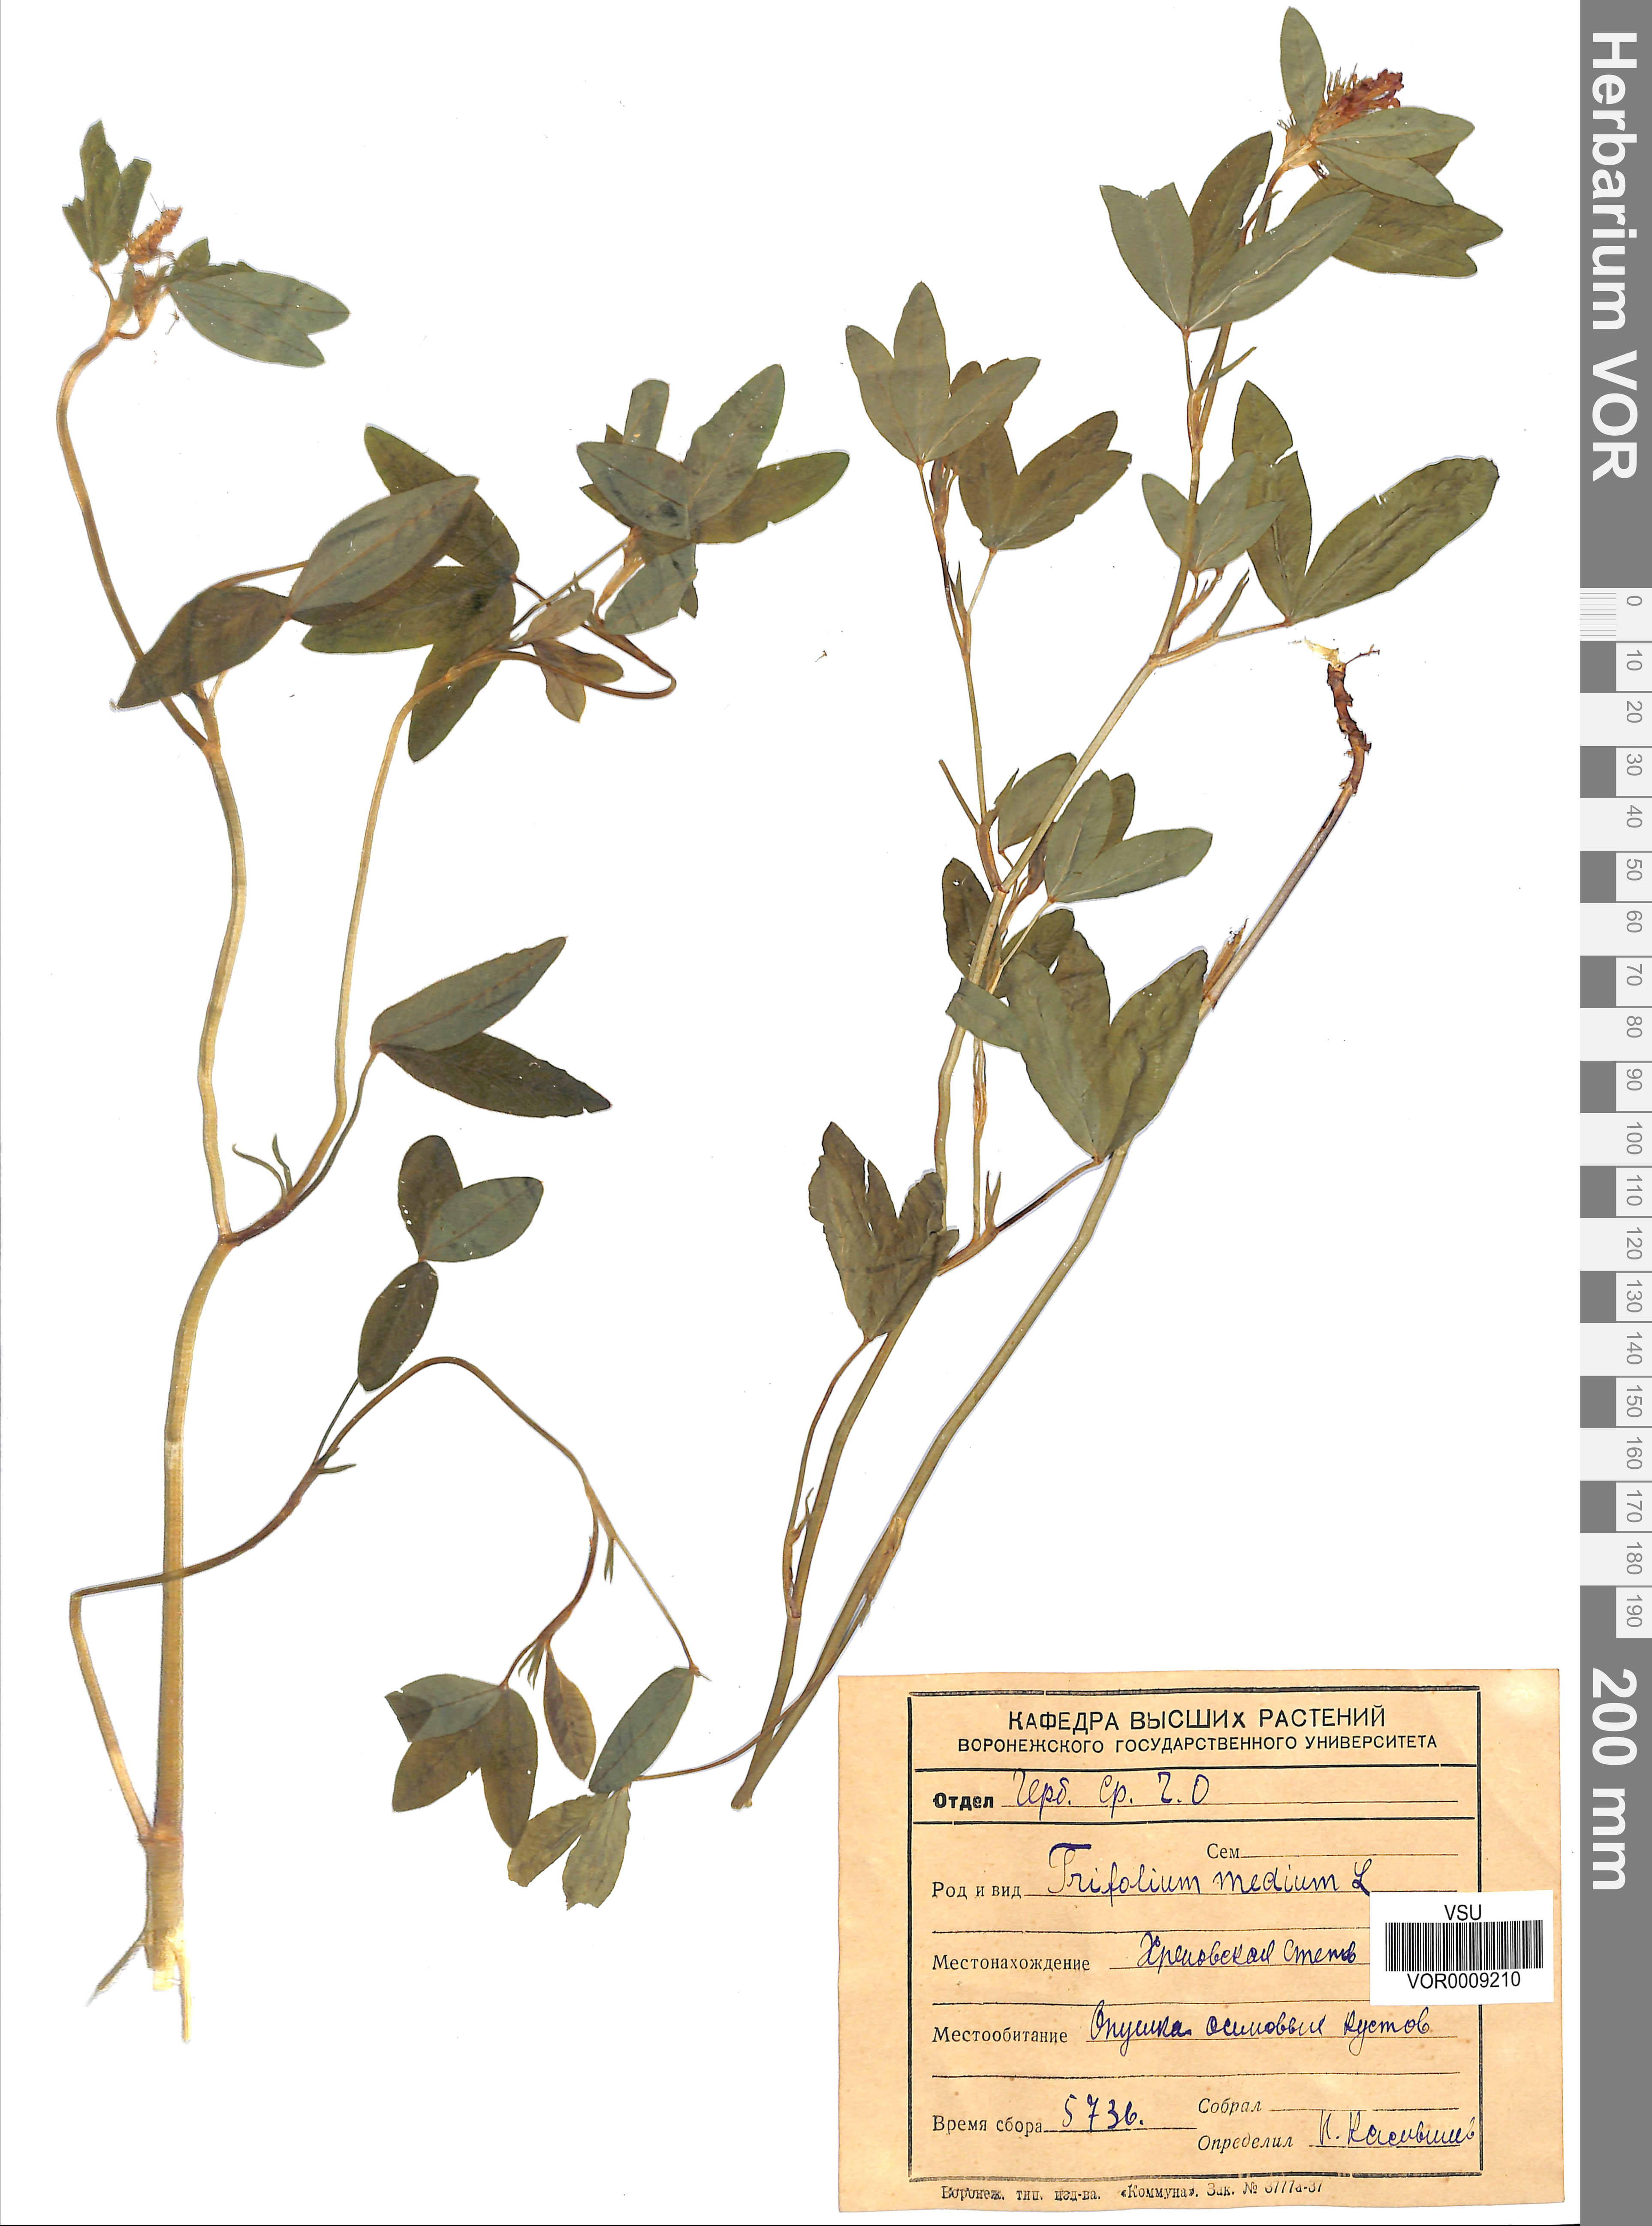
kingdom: Plantae
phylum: Tracheophyta
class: Magnoliopsida
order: Fabales
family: Fabaceae
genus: Trifolium
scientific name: Trifolium medium
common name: Zigzag clover
